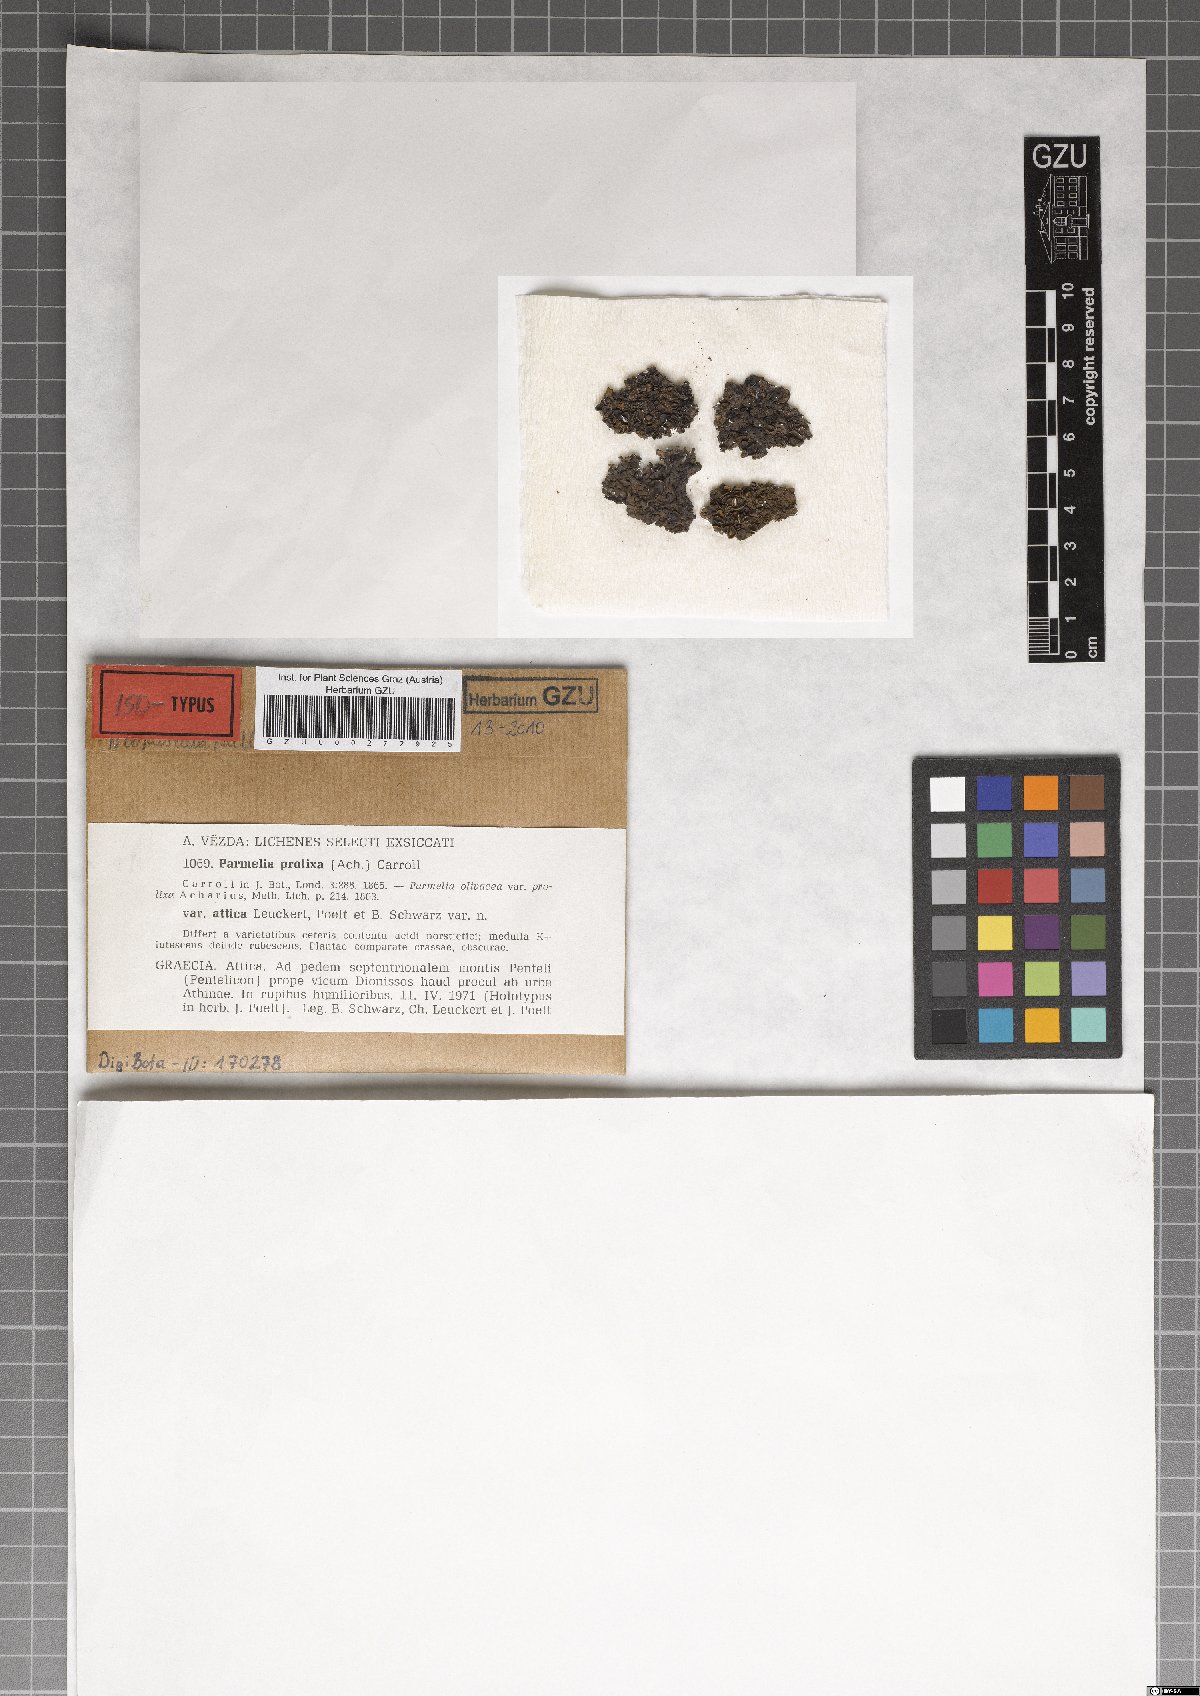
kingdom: Fungi
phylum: Ascomycota
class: Lecanoromycetes
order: Lecanorales
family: Parmeliaceae
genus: Parmelinella
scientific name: Parmelinella
